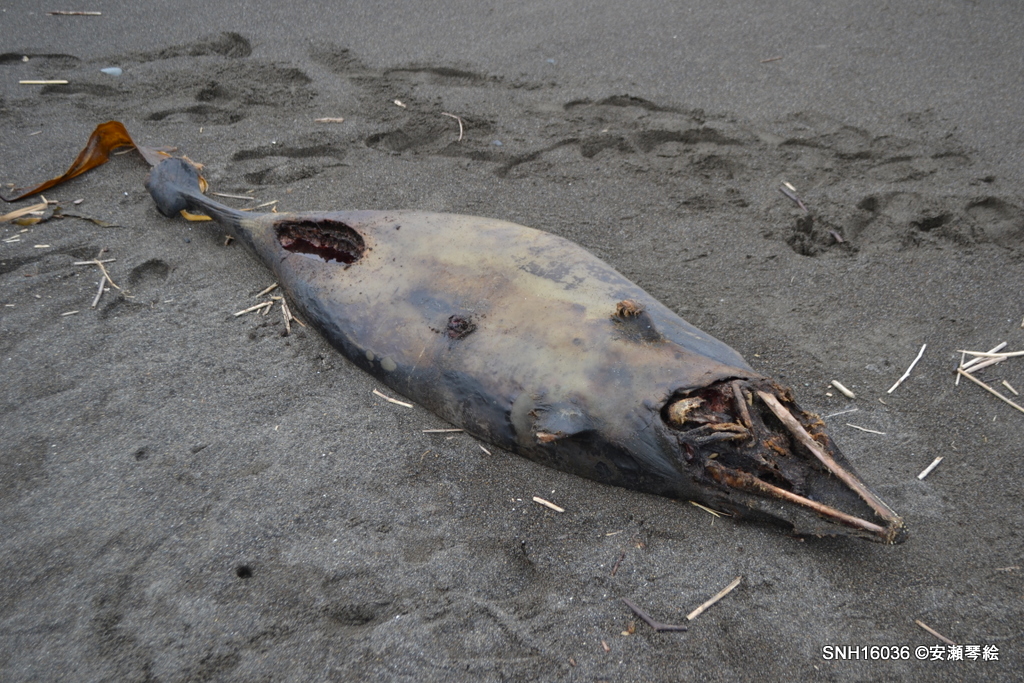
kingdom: Animalia
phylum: Chordata
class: Mammalia
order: Cetacea
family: Delphinidae
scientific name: Delphinidae
